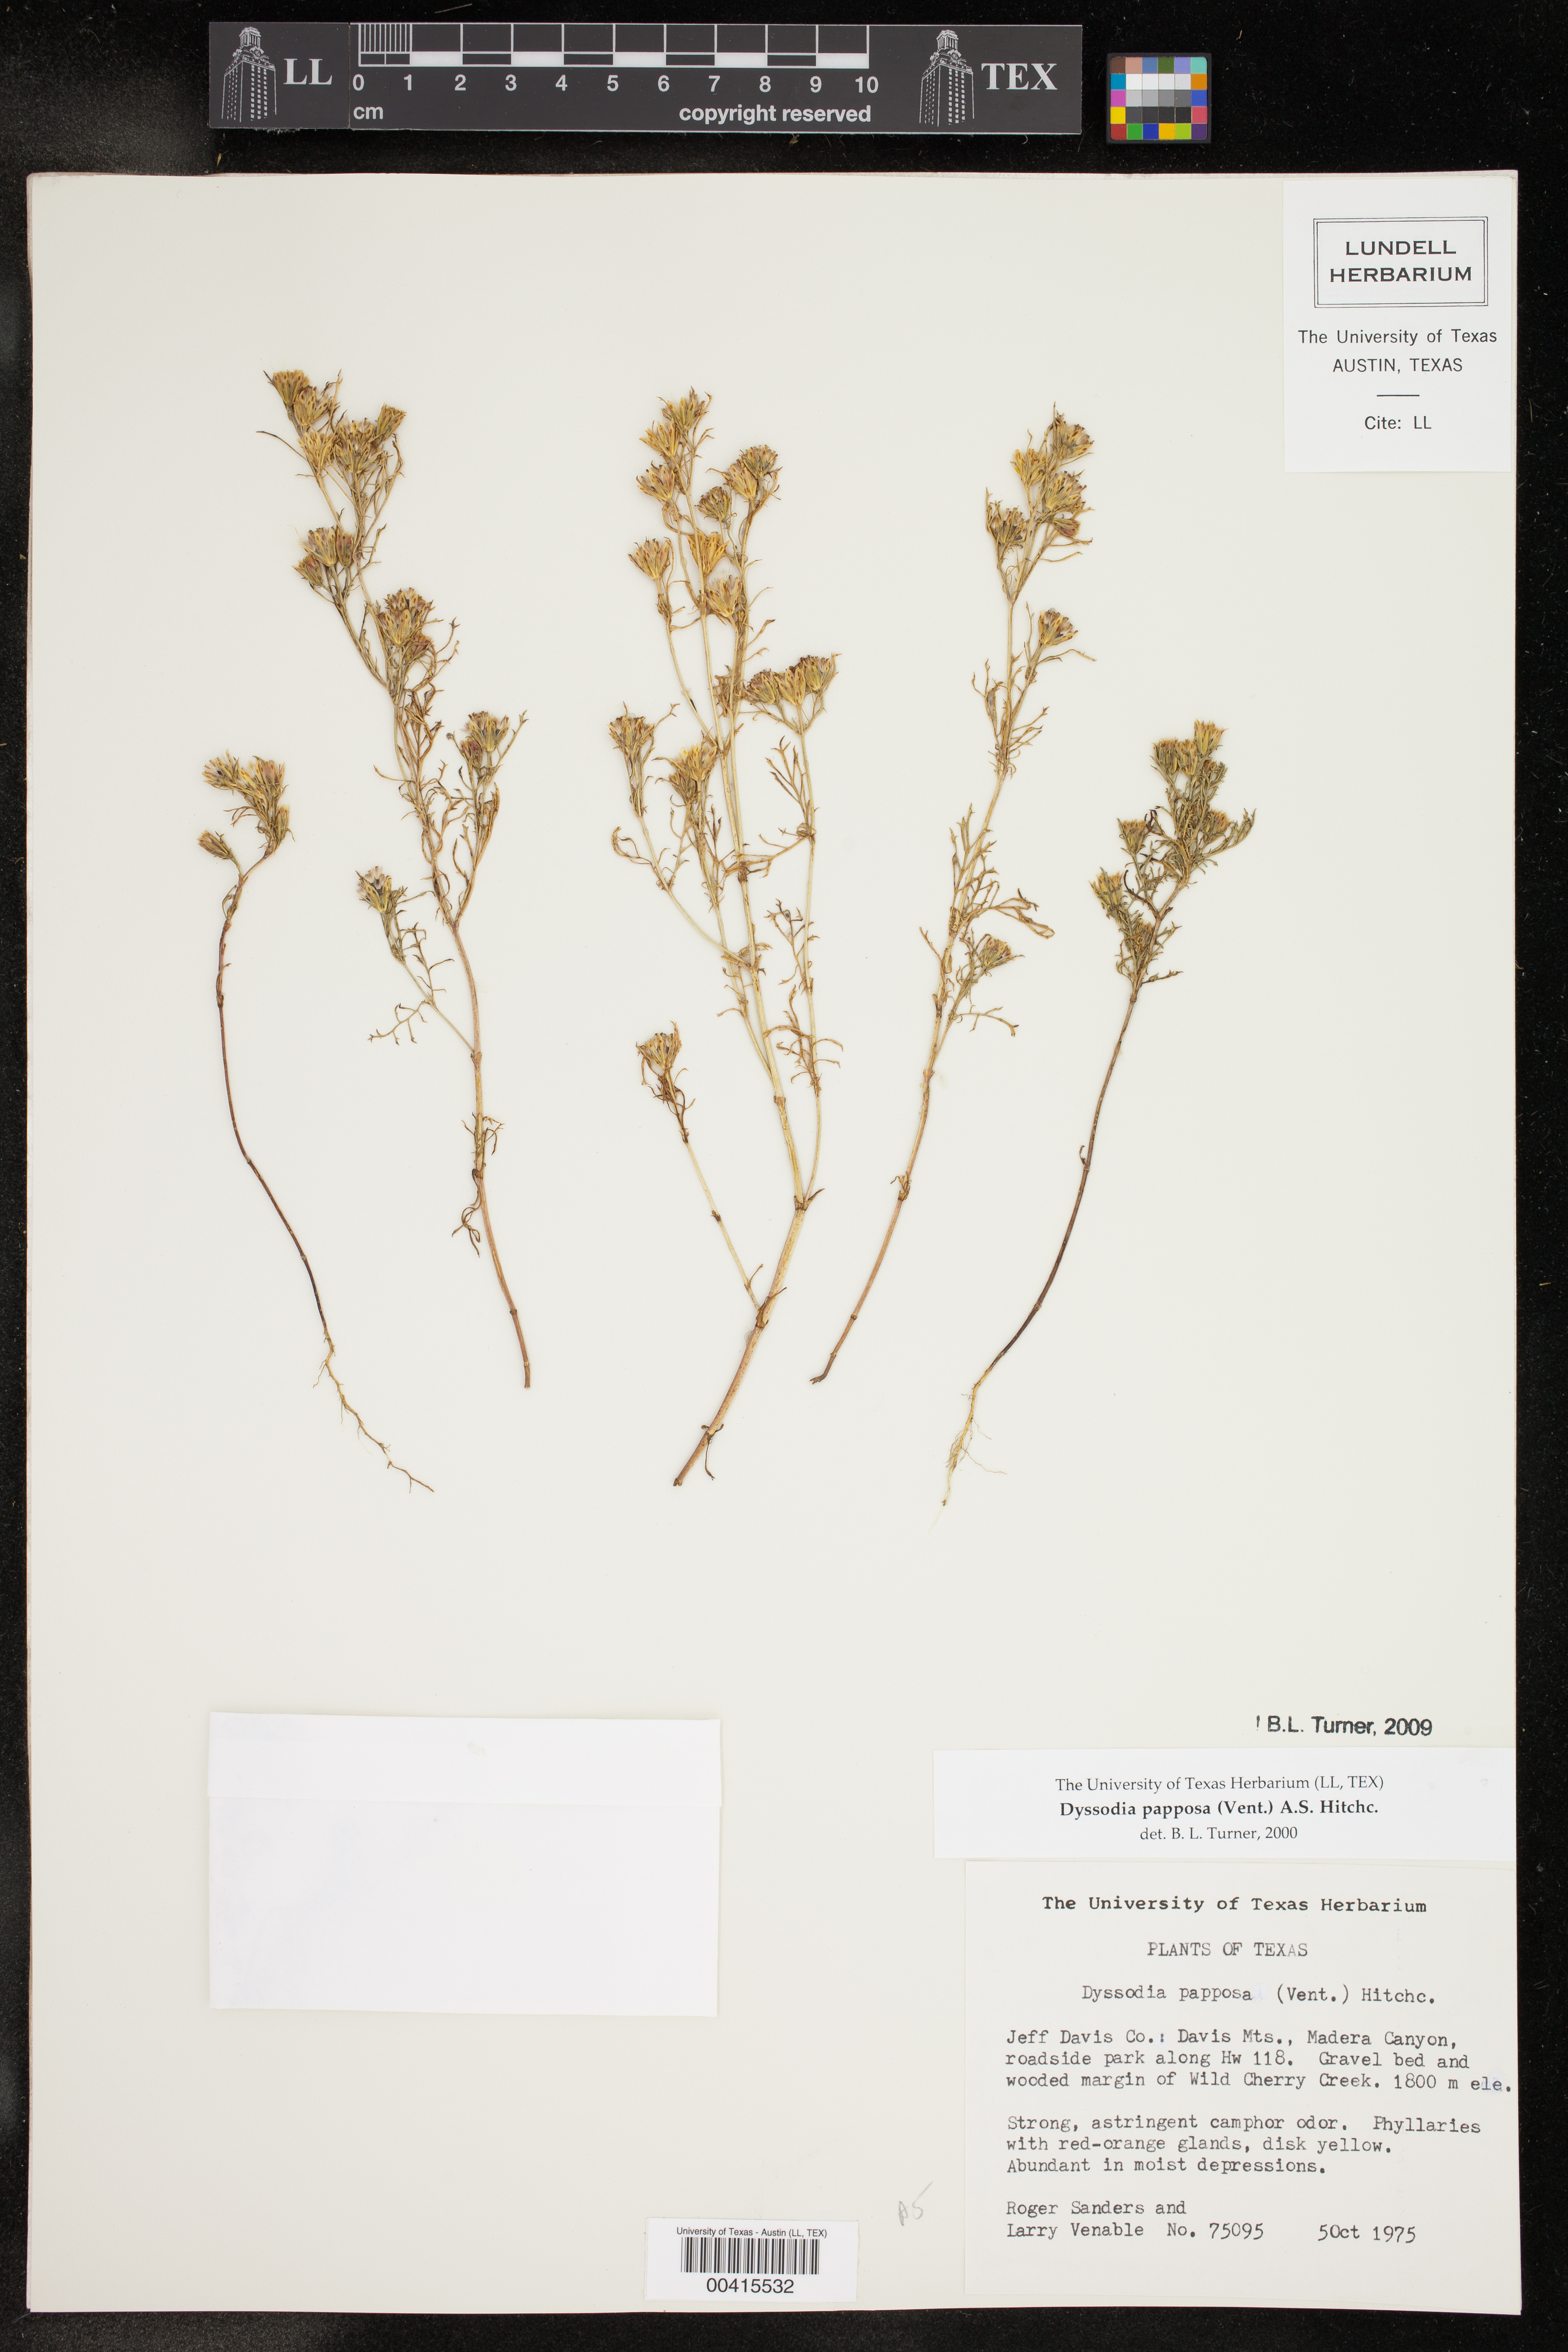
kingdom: Plantae
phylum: Tracheophyta
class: Magnoliopsida
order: Asterales
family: Asteraceae
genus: Dyssodia
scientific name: Dyssodia papposa
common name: Dogweed
